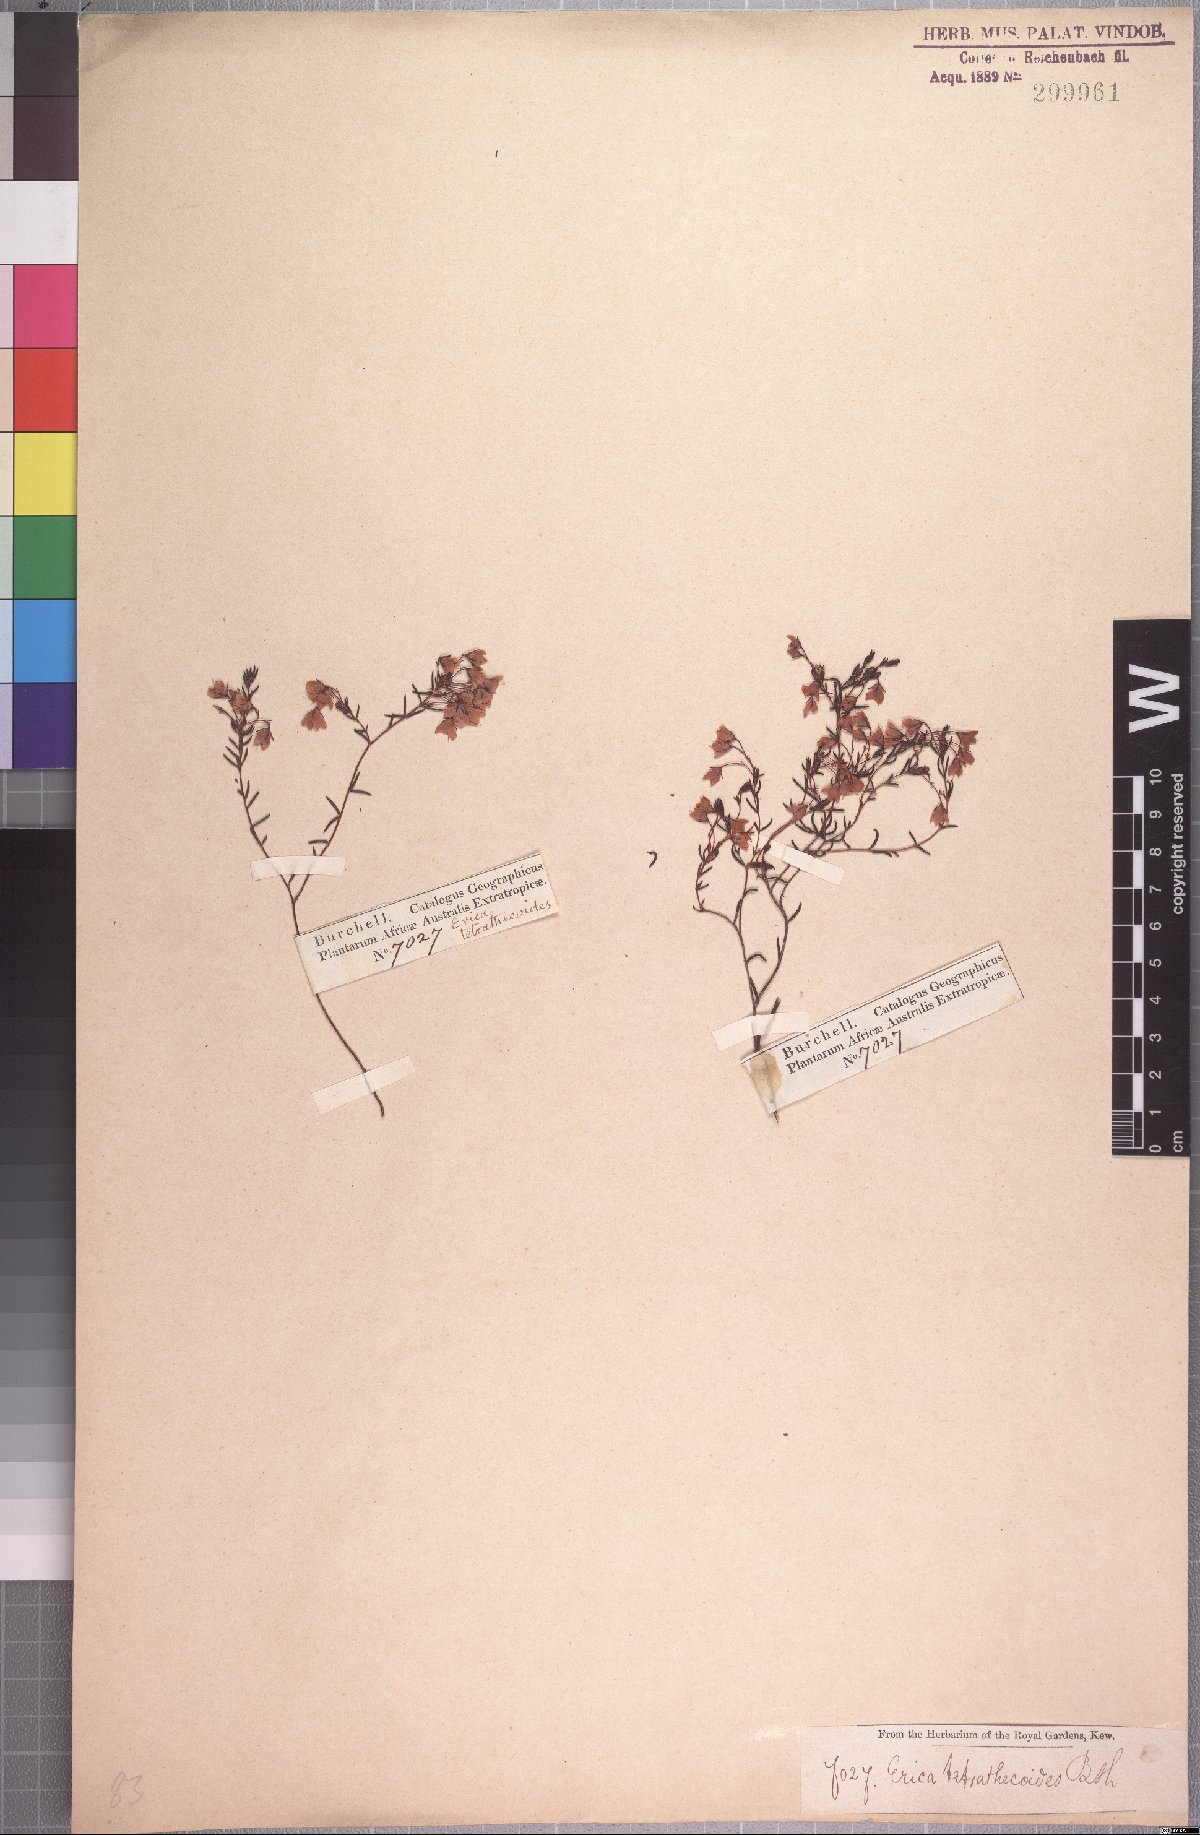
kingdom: Plantae
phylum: Tracheophyta
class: Magnoliopsida
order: Ericales
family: Ericaceae
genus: Erica
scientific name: Erica tetrathecoides
